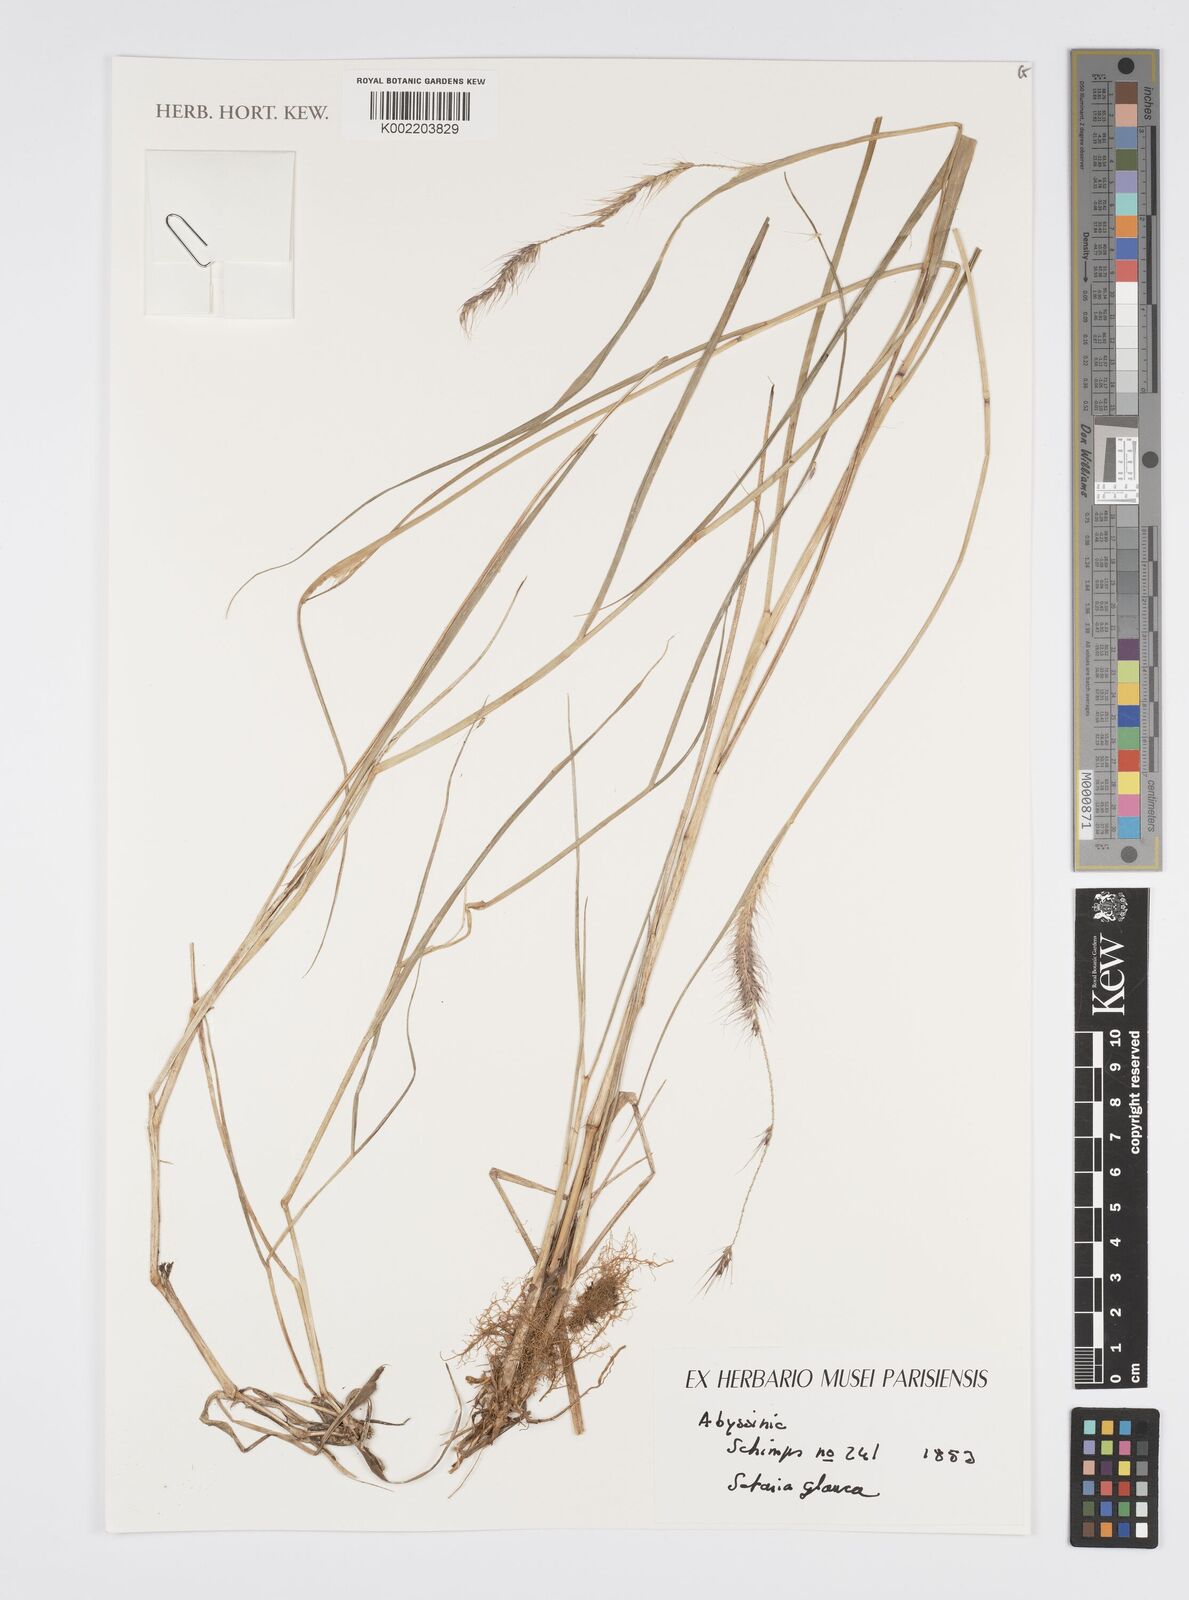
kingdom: Plantae
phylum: Tracheophyta
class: Liliopsida
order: Poales
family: Poaceae
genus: Cenchrus
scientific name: Cenchrus americanus
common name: Pearl millet
